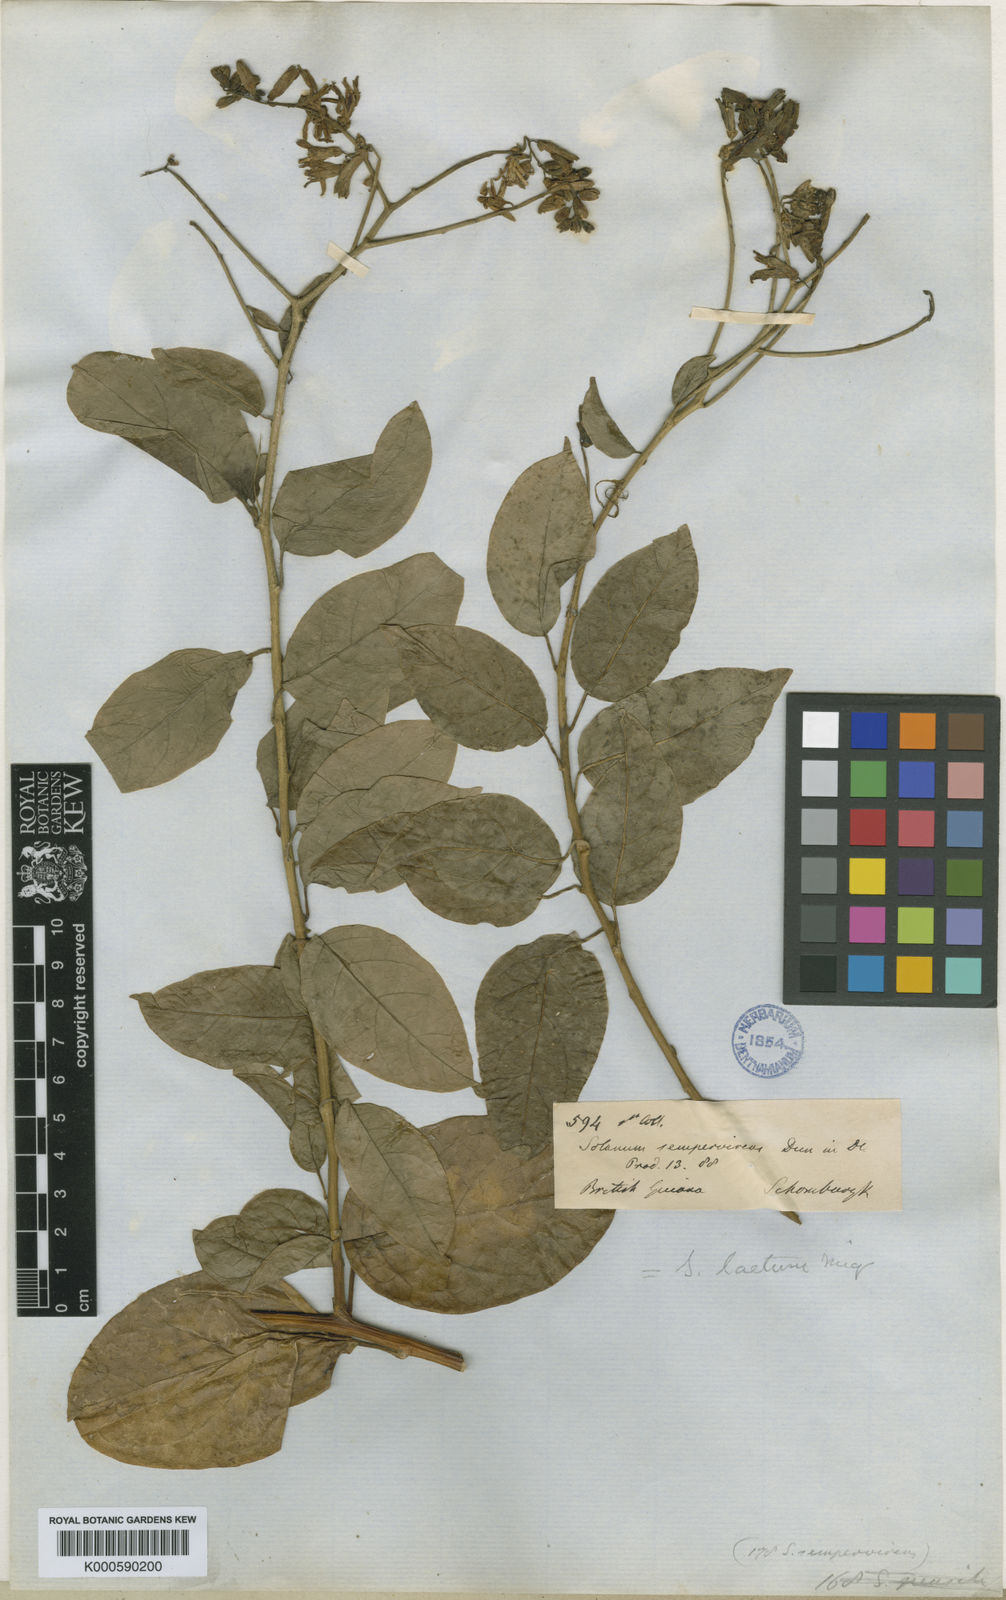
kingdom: Plantae
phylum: Tracheophyta
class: Magnoliopsida
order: Solanales
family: Solanaceae
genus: Solanum
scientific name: Solanum uncinellum
